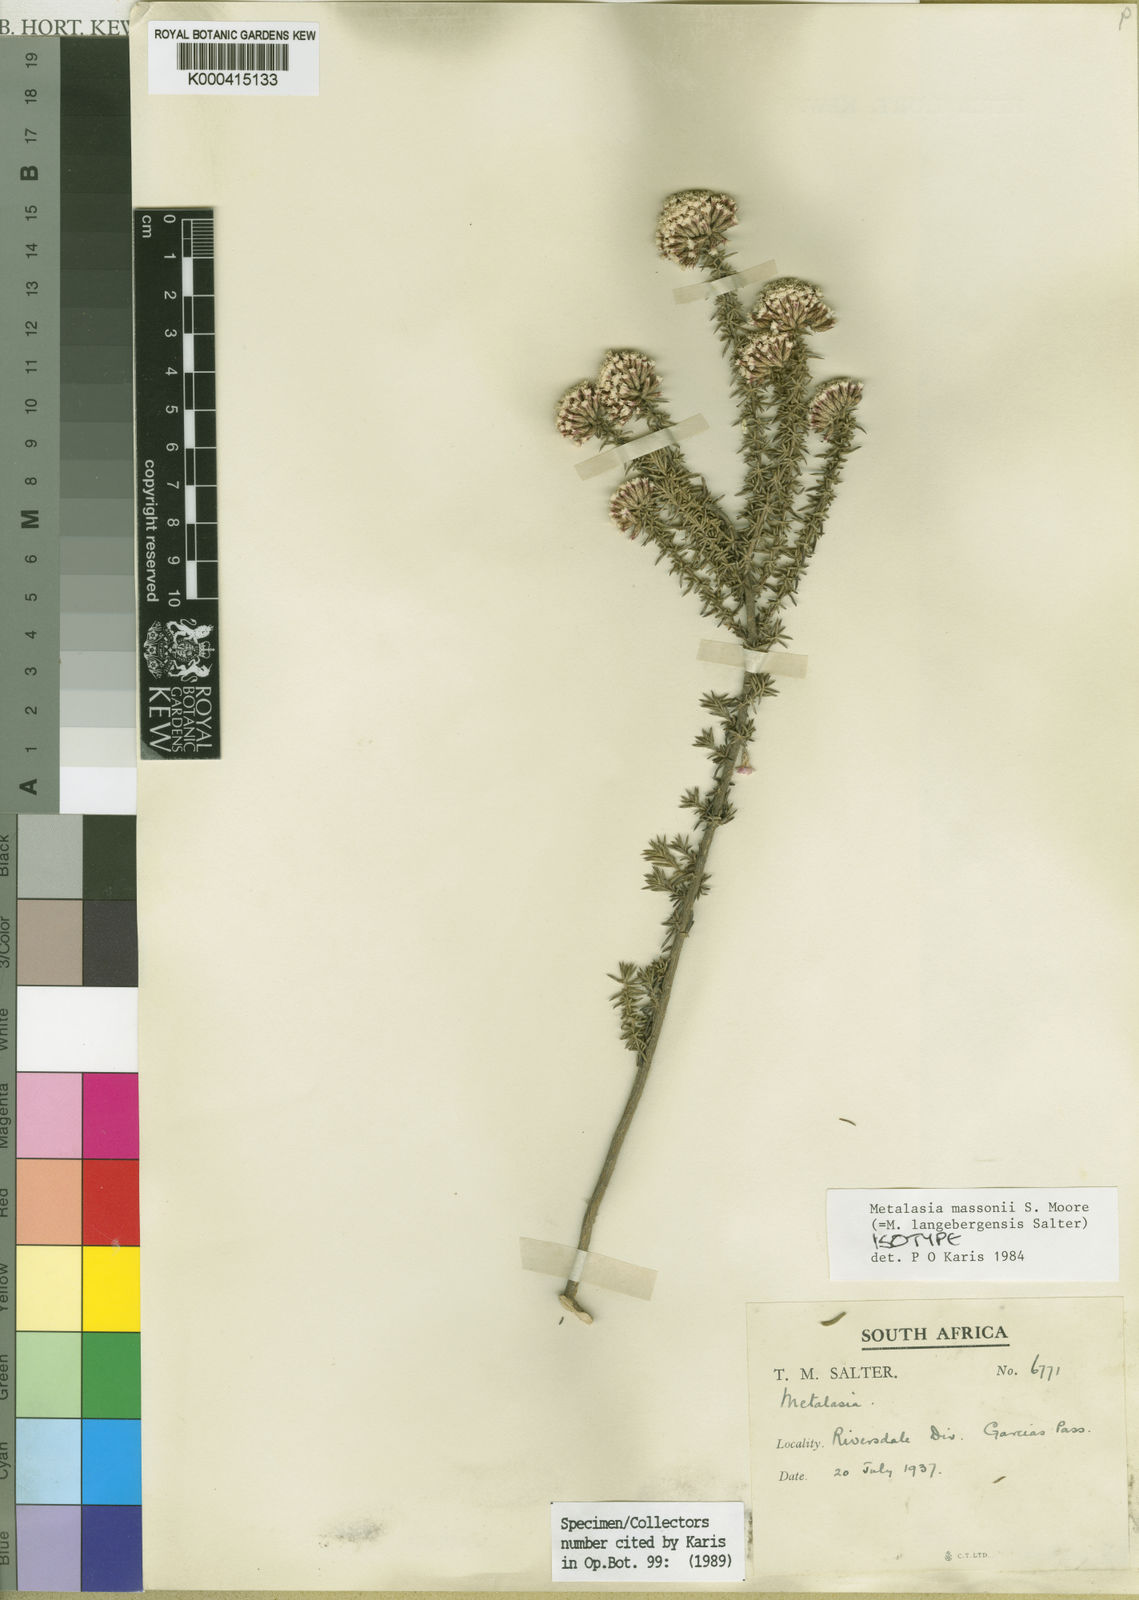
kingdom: Plantae
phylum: Tracheophyta
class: Magnoliopsida
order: Asterales
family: Asteraceae
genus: Metalasia
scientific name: Metalasia massonii
